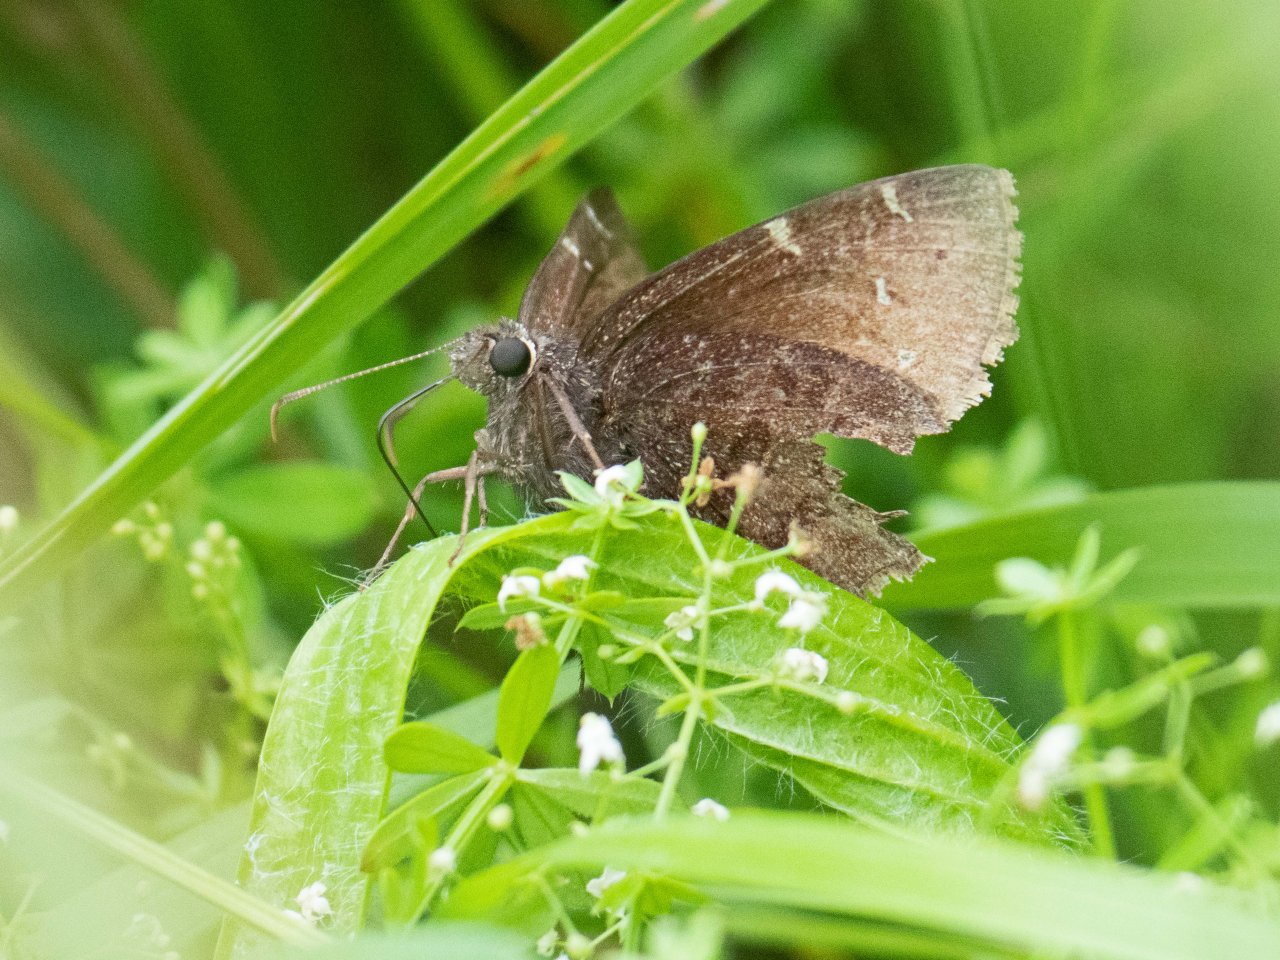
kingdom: Animalia
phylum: Arthropoda
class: Insecta
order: Lepidoptera
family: Hesperiidae
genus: Autochton
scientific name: Autochton
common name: Northern Cloudywing
